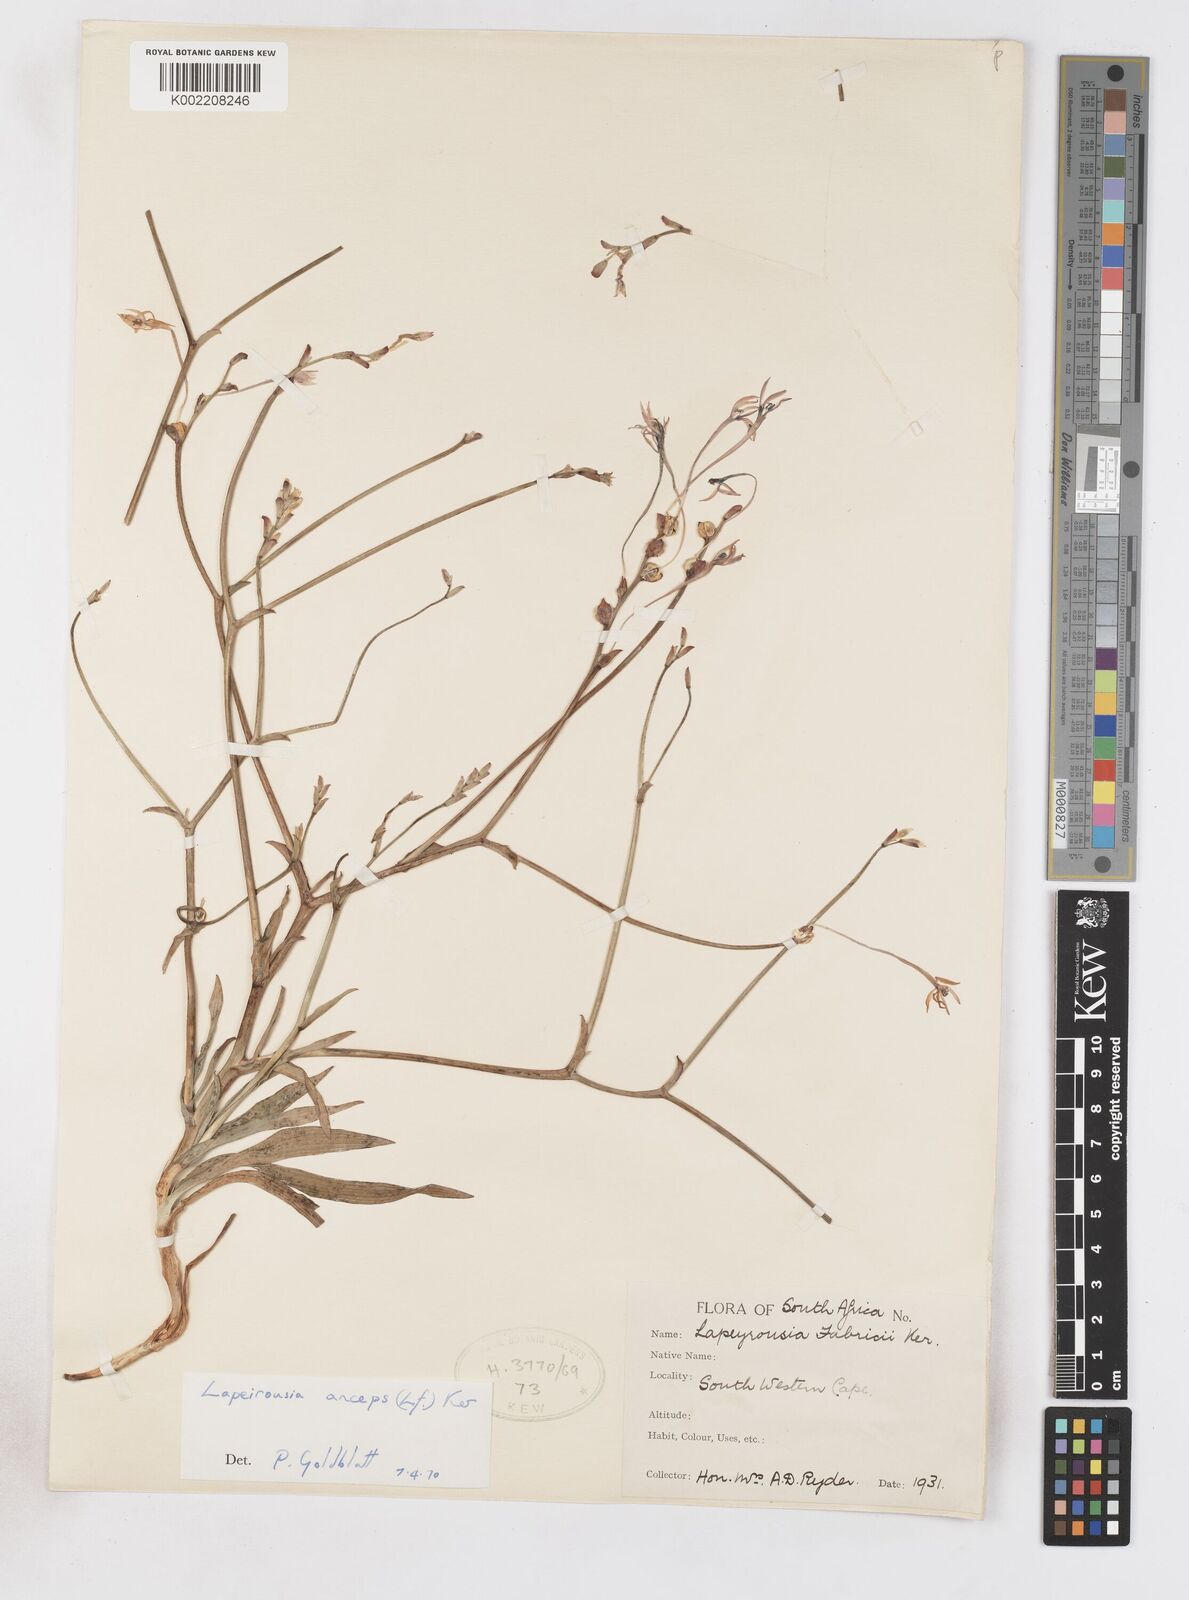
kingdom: Plantae
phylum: Tracheophyta
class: Liliopsida
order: Asparagales
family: Iridaceae
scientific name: Iridaceae
